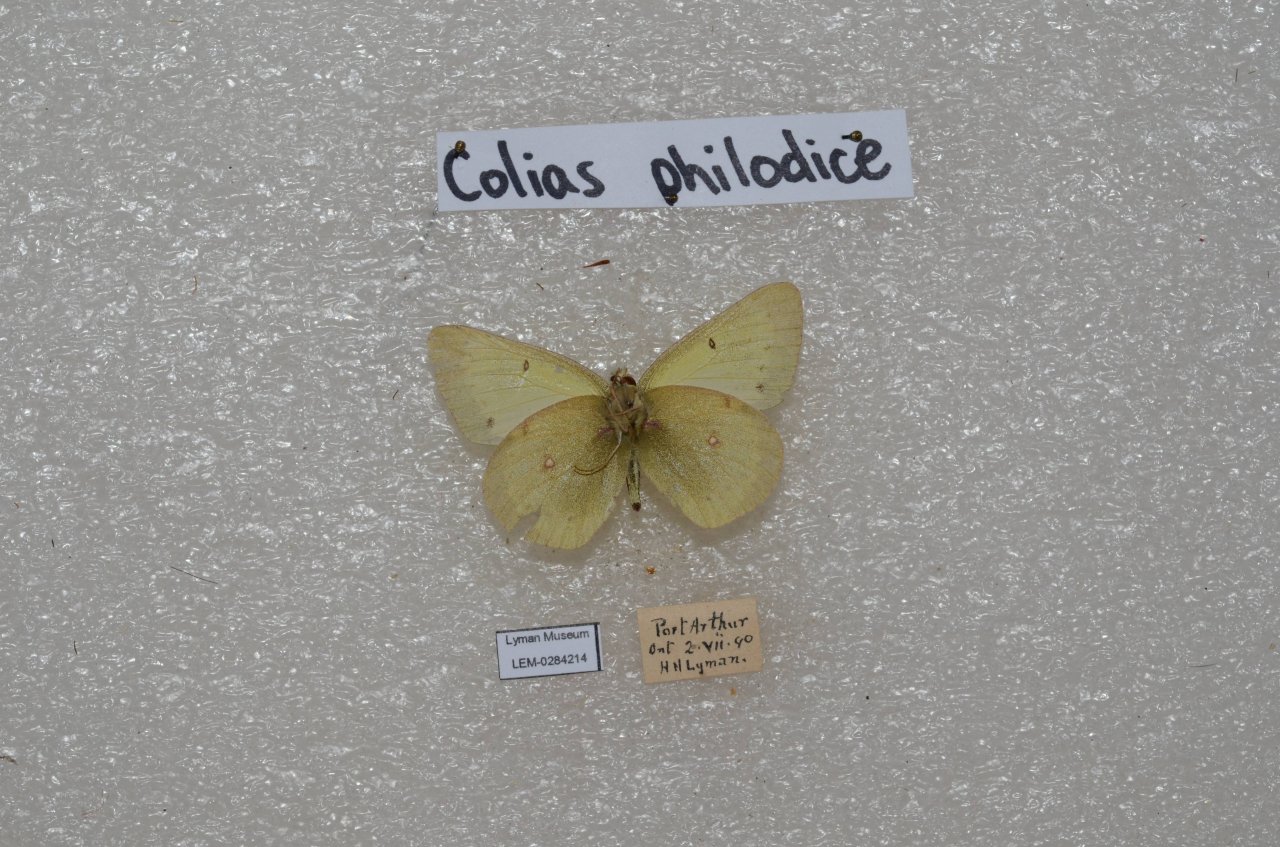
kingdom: Animalia
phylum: Arthropoda
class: Insecta
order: Lepidoptera
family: Pieridae
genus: Colias
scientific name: Colias philodice
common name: Clouded Sulphur
